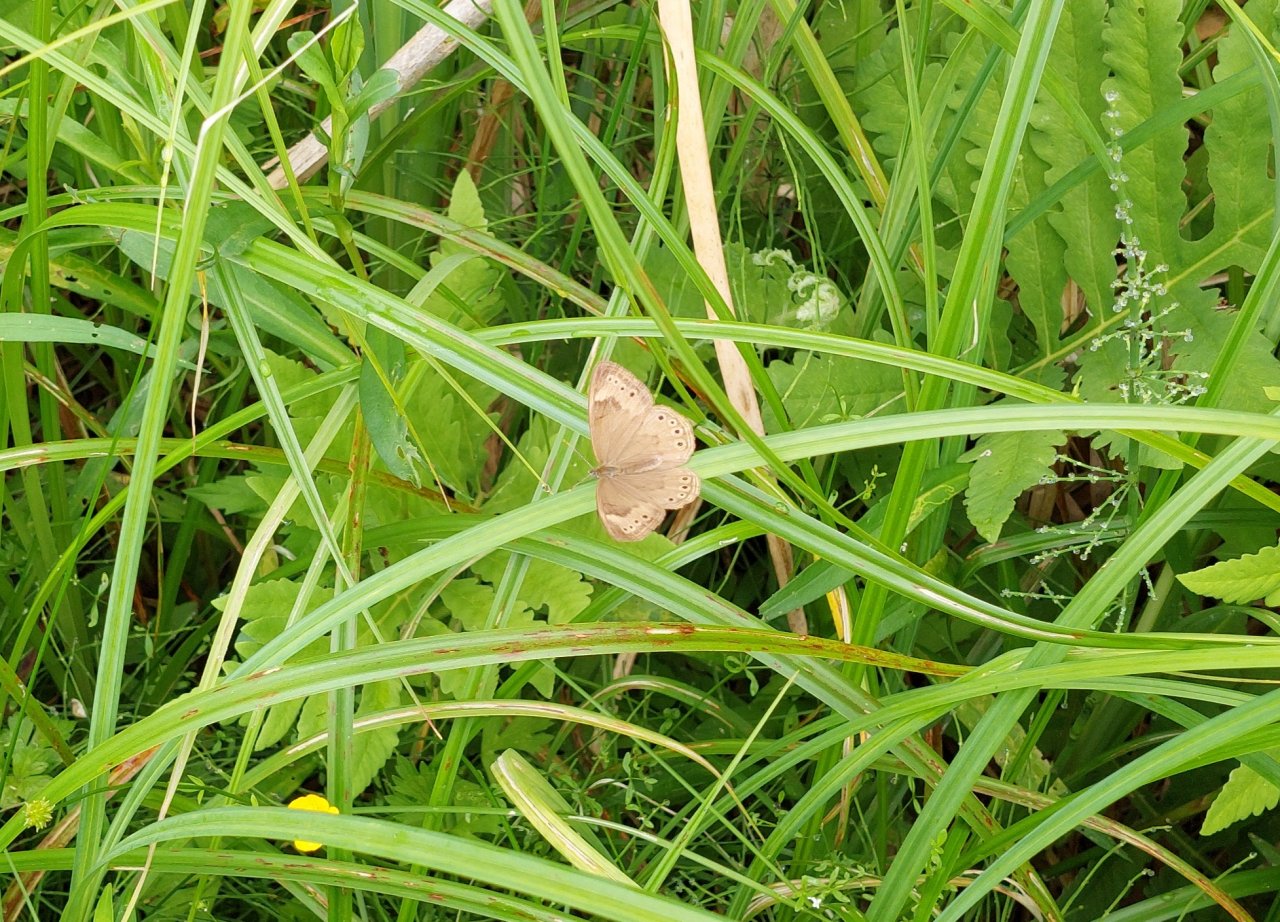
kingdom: Animalia
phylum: Arthropoda
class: Insecta
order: Lepidoptera
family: Nymphalidae
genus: Lethe
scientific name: Lethe eurydice
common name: Eyed Brown
